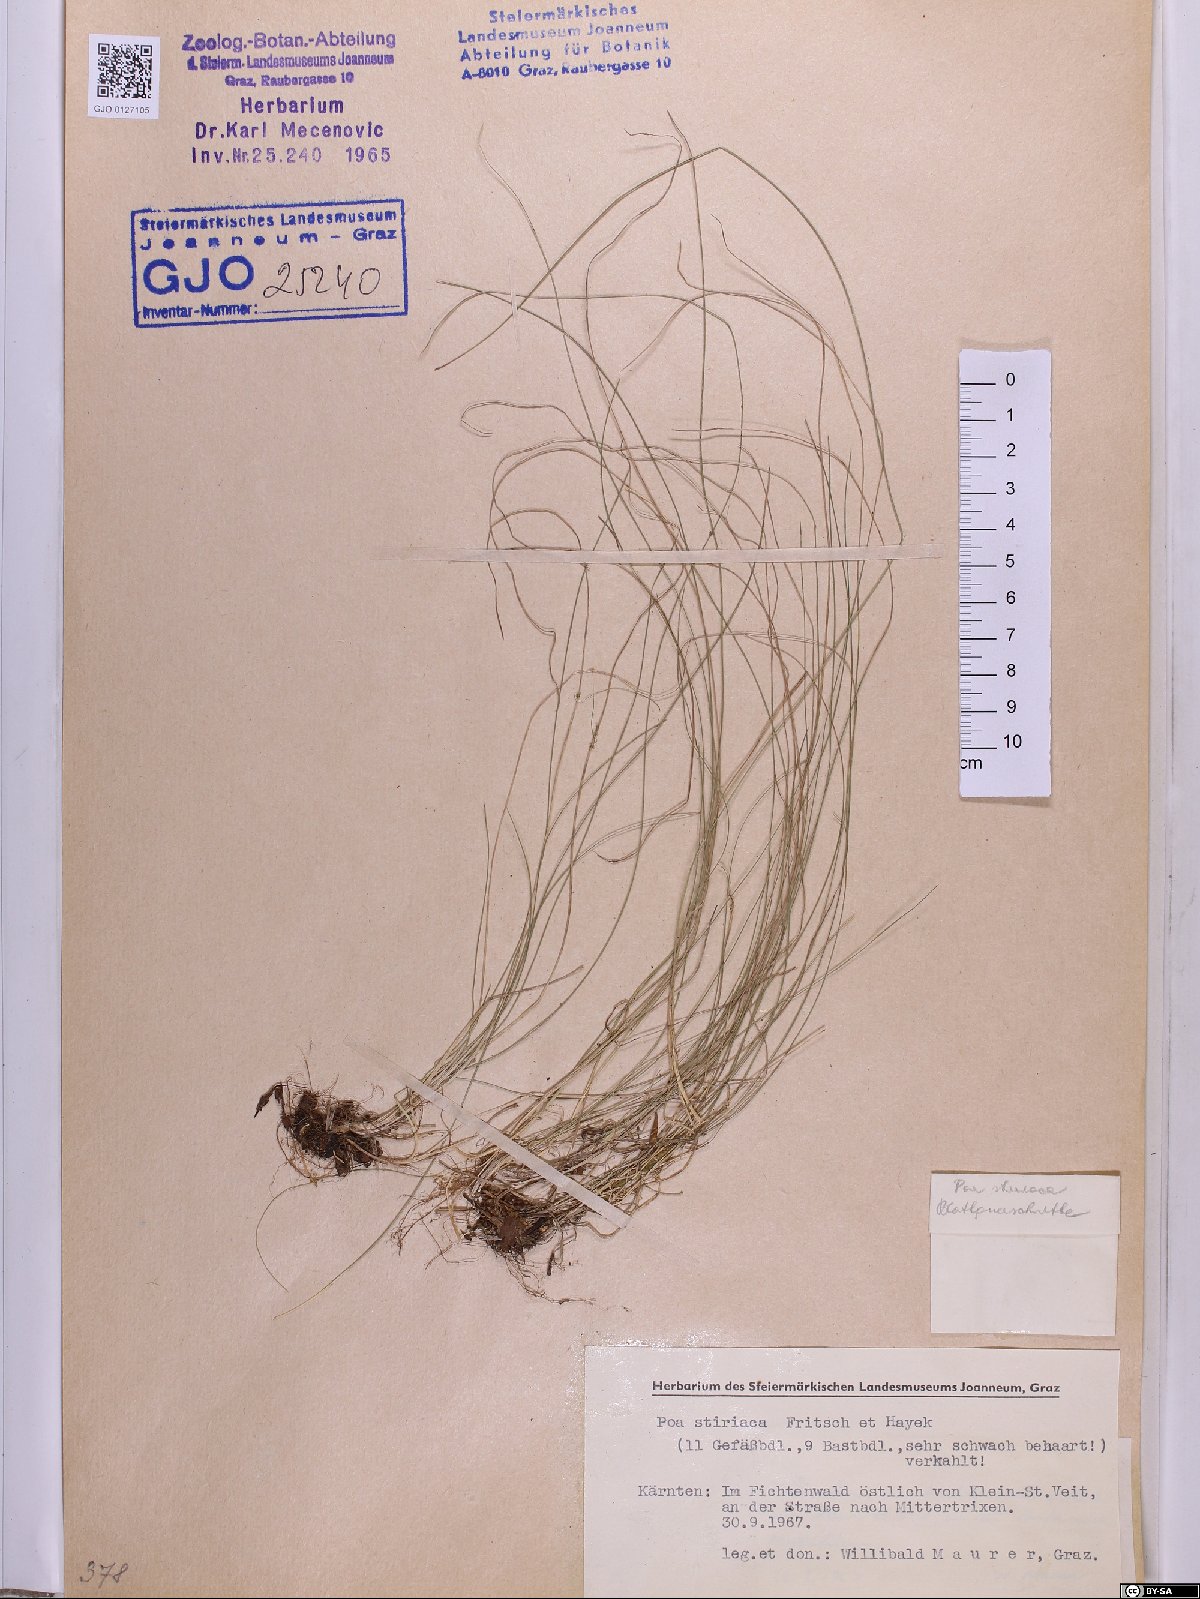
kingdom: Plantae
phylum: Tracheophyta
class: Liliopsida
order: Poales
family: Poaceae
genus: Poa
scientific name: Poa stiriaca
